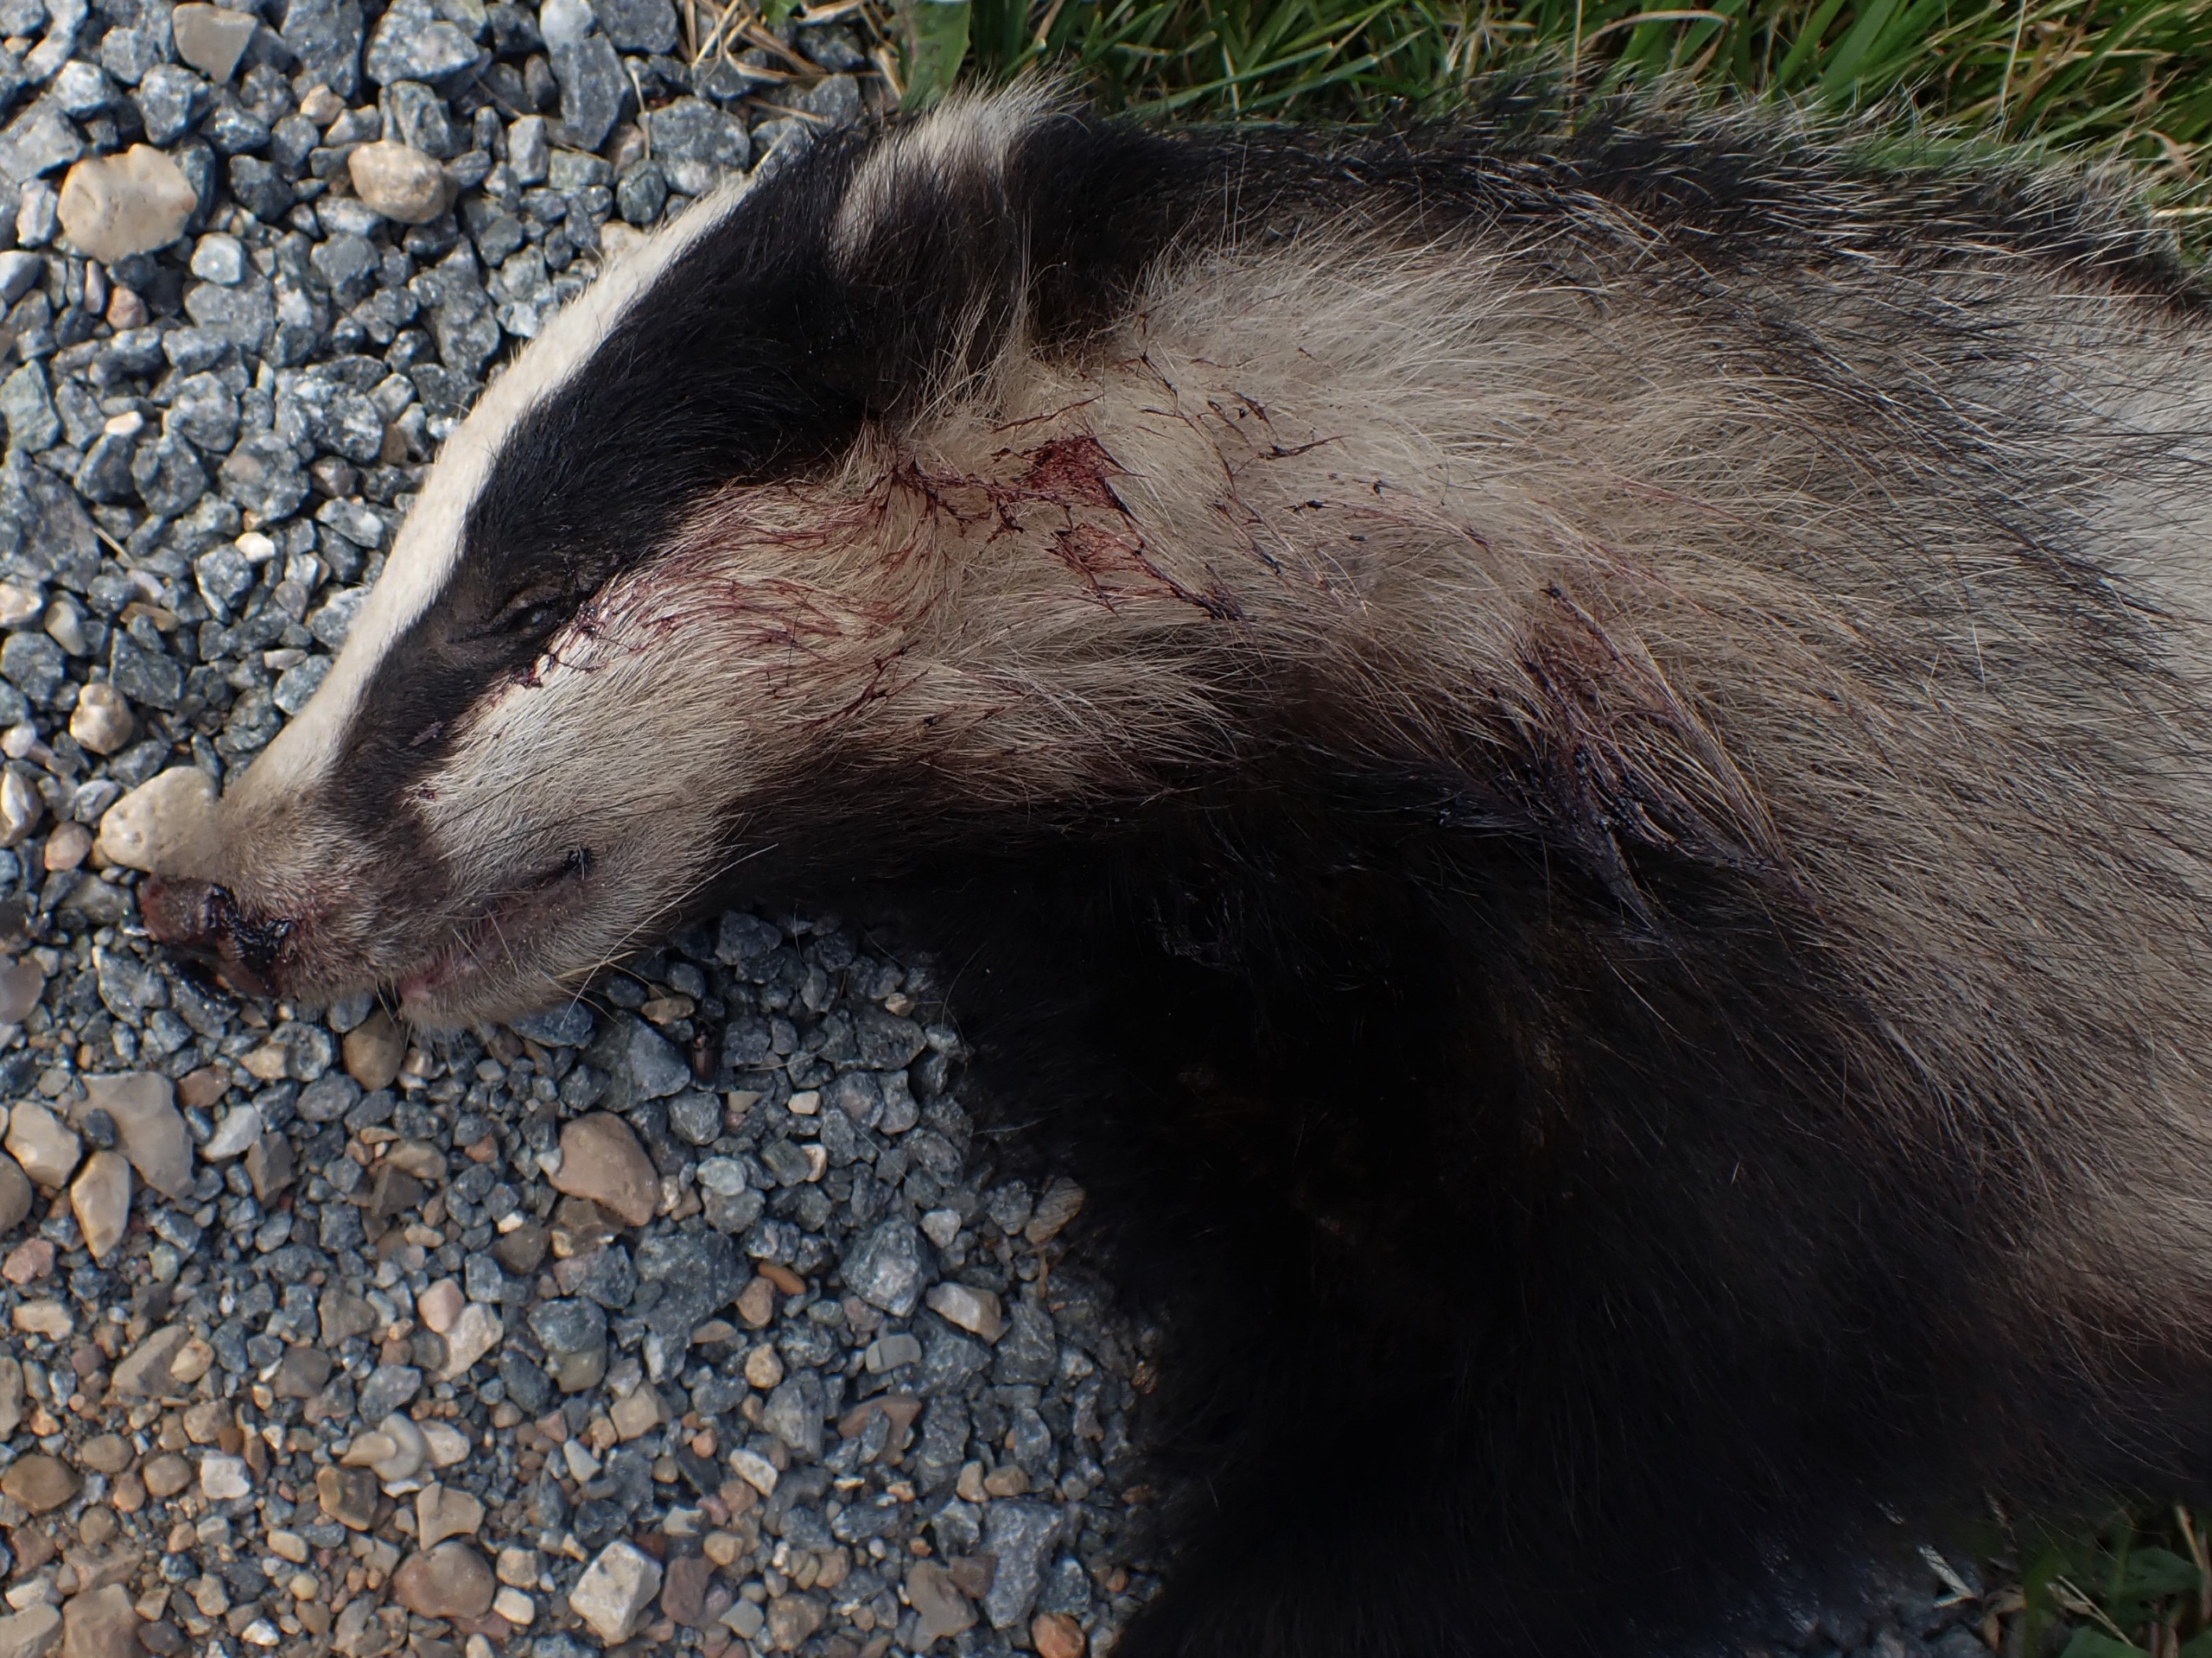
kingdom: Animalia
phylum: Chordata
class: Mammalia
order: Carnivora
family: Mustelidae
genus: Meles
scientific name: Meles meles
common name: Grævling
